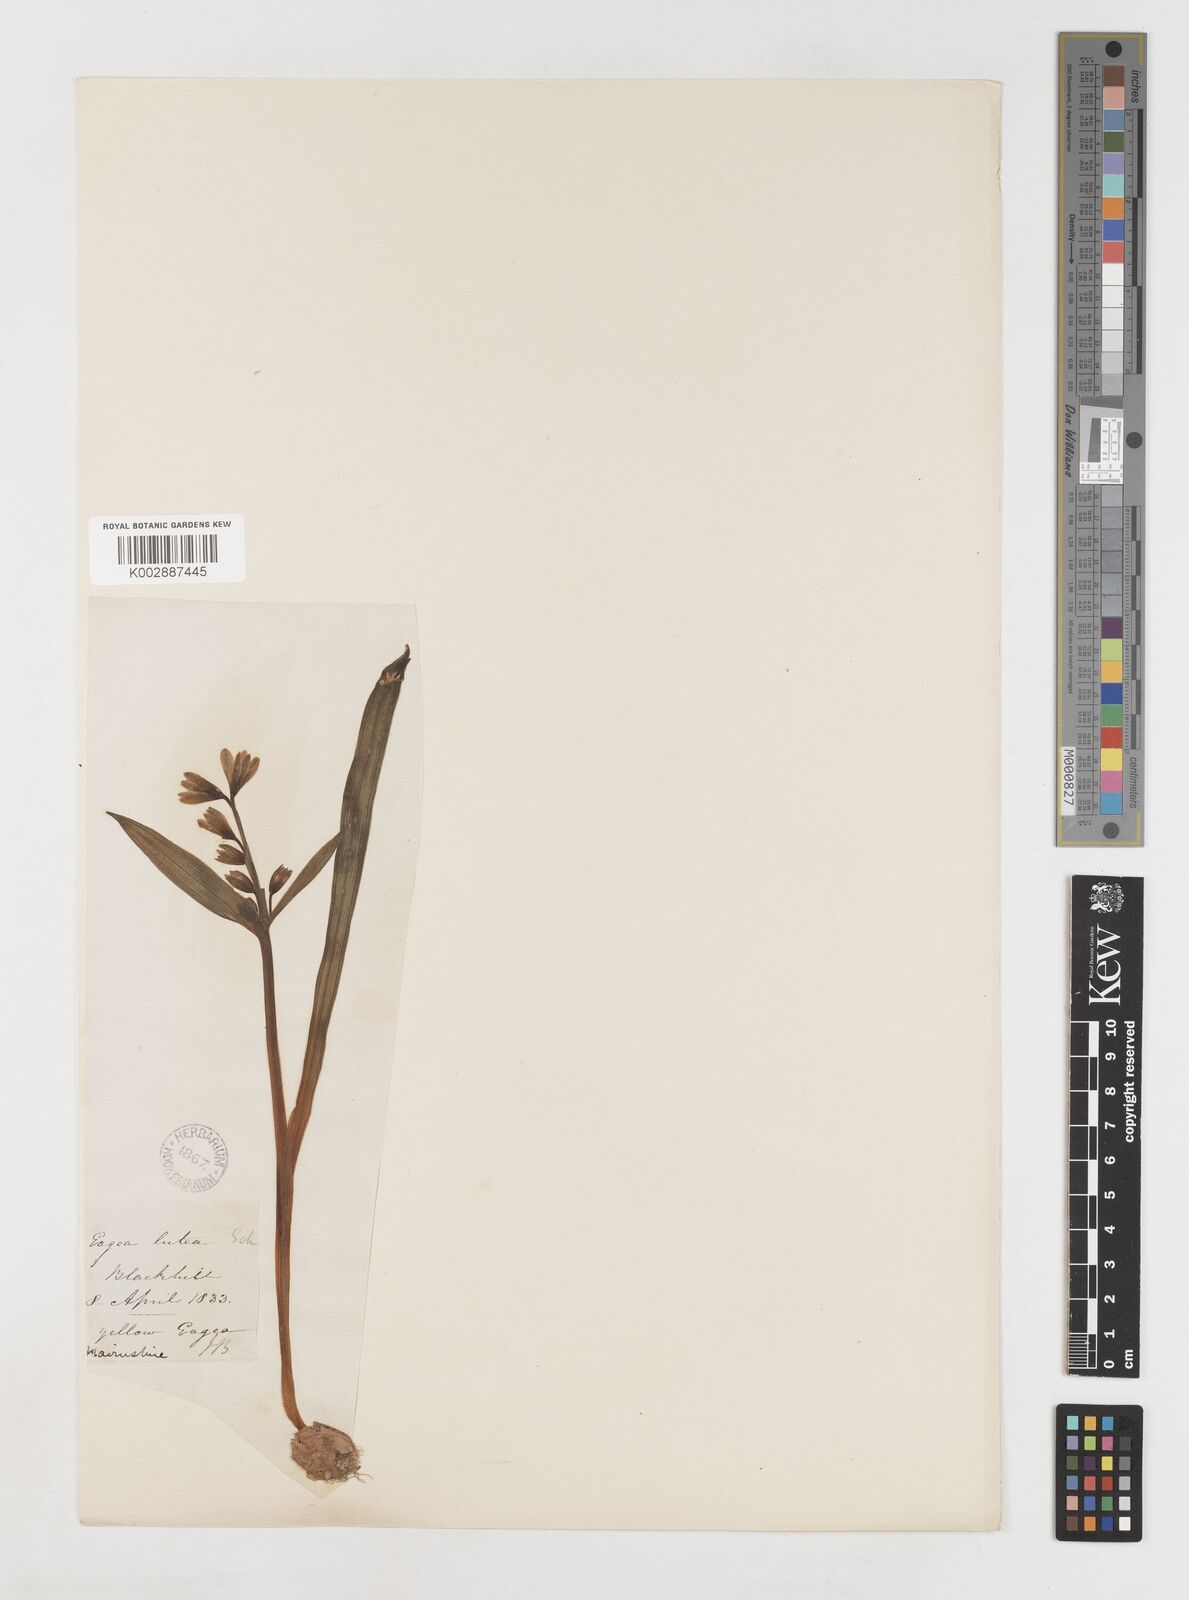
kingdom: Plantae
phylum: Tracheophyta
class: Liliopsida
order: Liliales
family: Liliaceae
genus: Gagea
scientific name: Gagea lutea
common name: Yellow star-of-bethlehem
